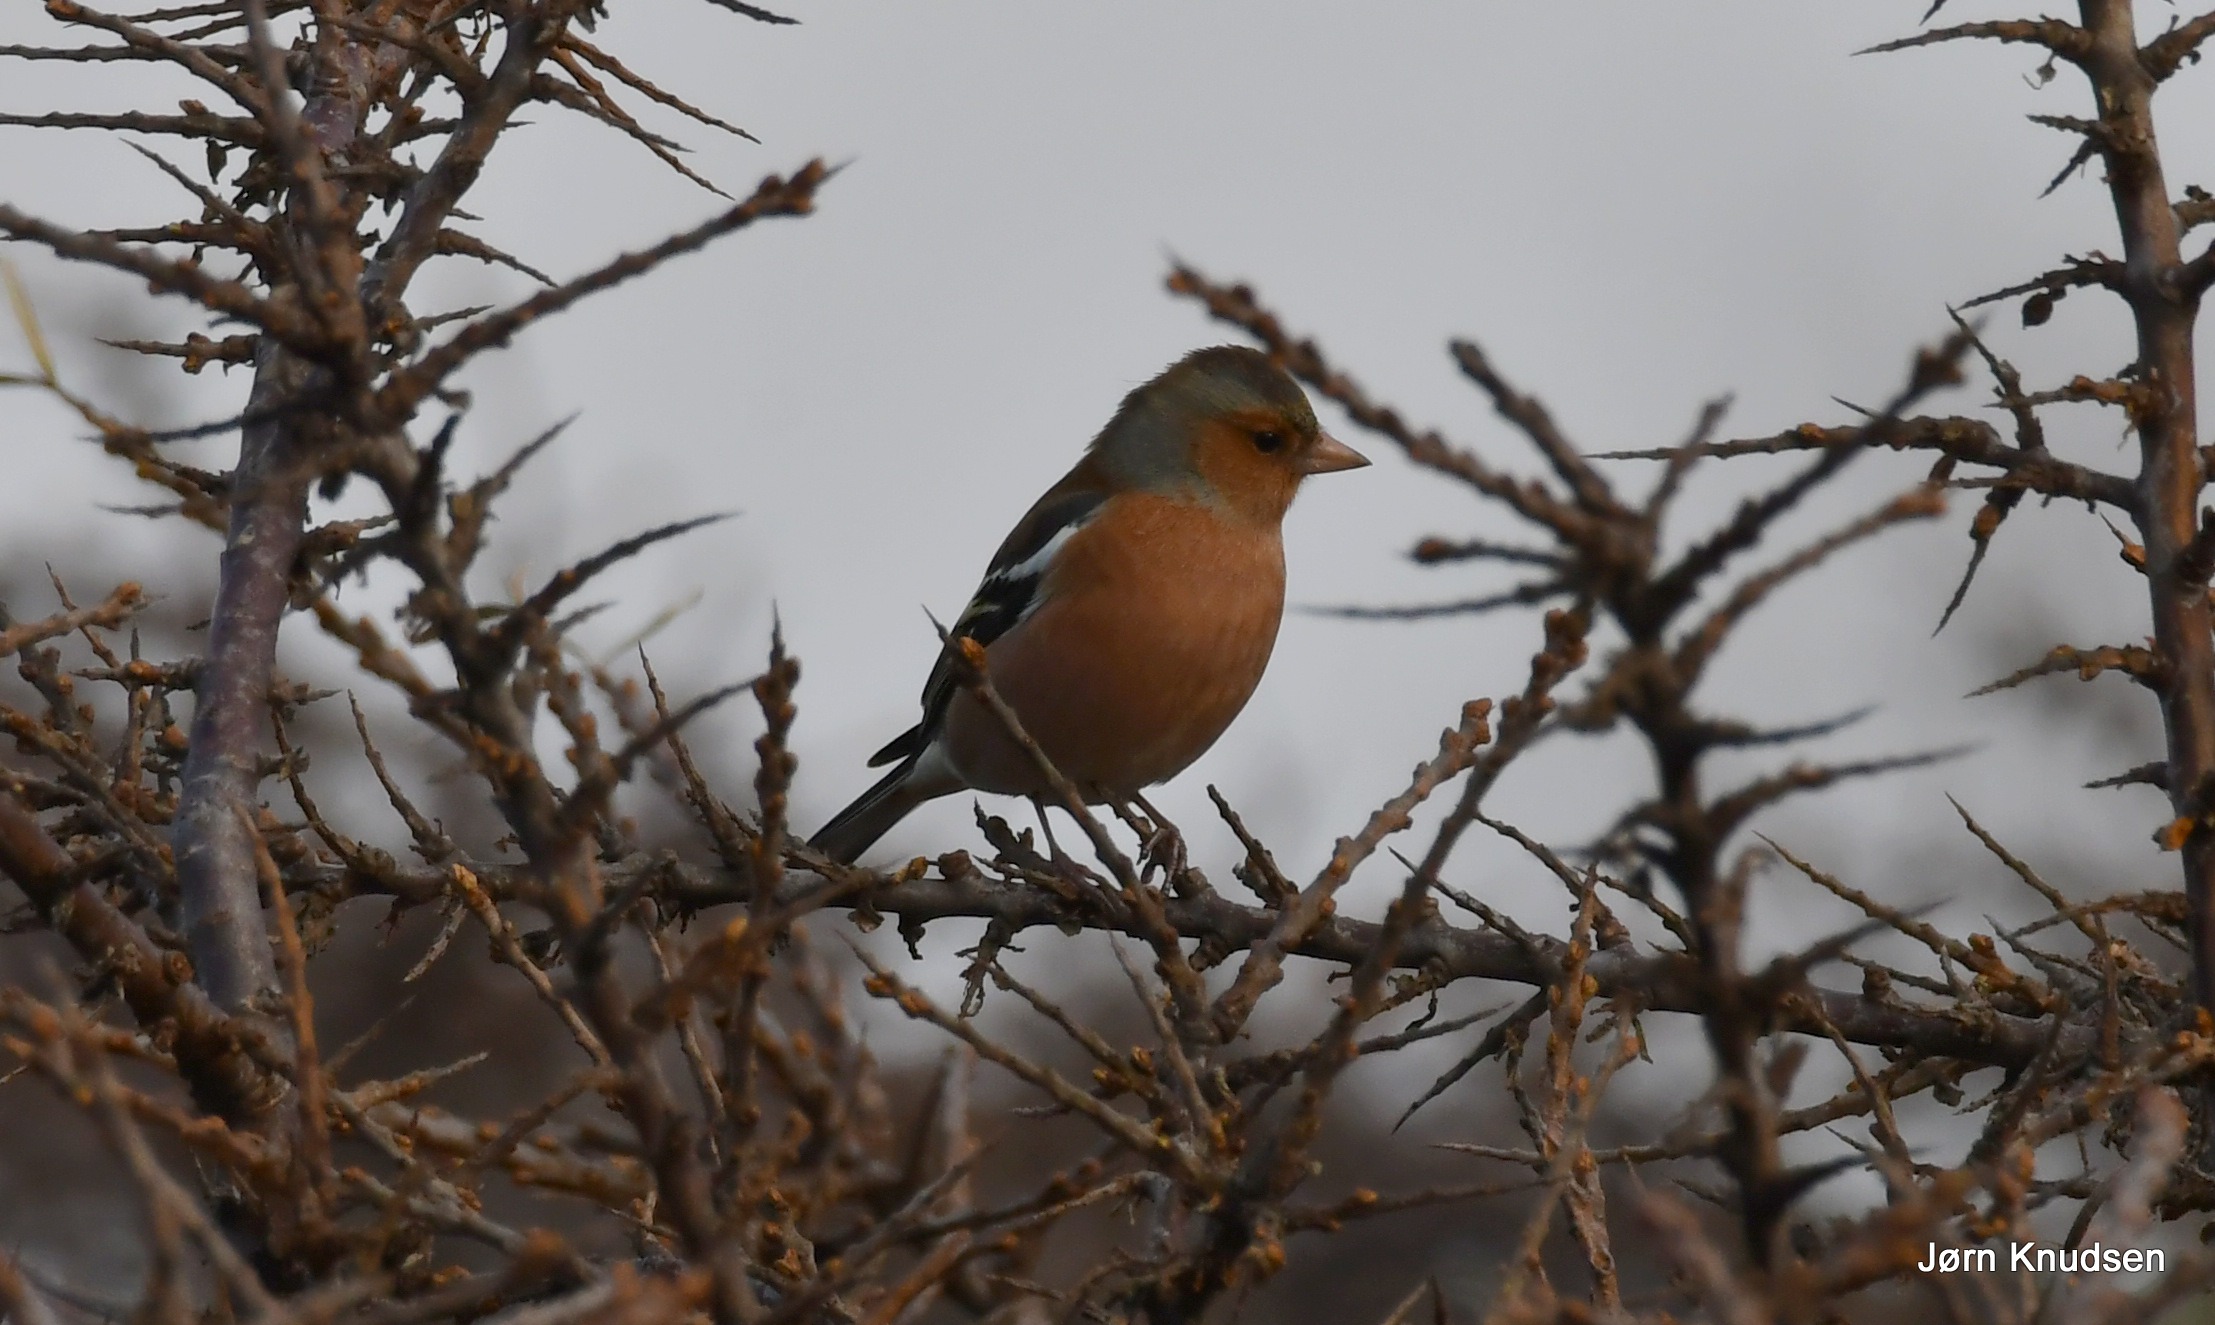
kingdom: Animalia
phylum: Chordata
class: Aves
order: Passeriformes
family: Fringillidae
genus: Fringilla
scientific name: Fringilla coelebs
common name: Bogfinke
